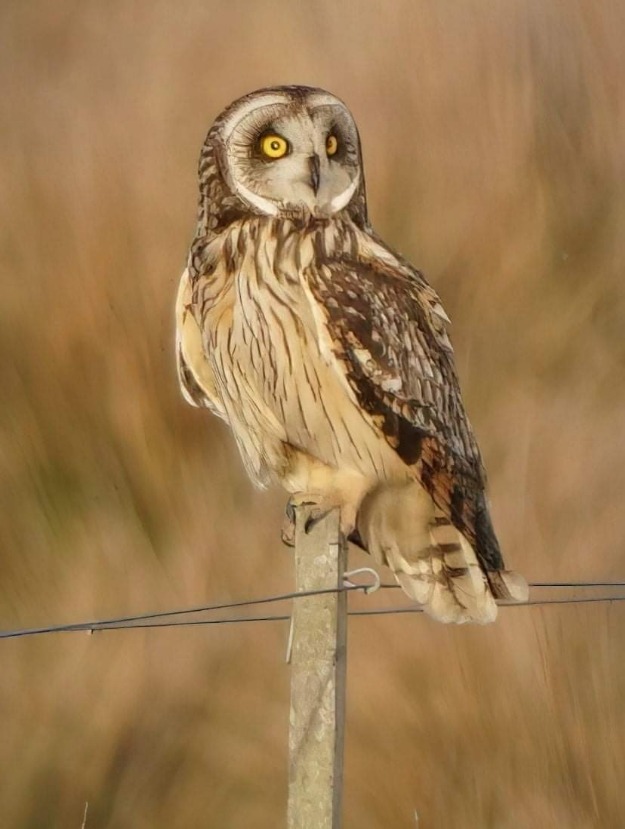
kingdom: Animalia
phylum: Chordata
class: Aves
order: Strigiformes
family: Strigidae
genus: Asio
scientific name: Asio flammeus
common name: Mosehornugle
